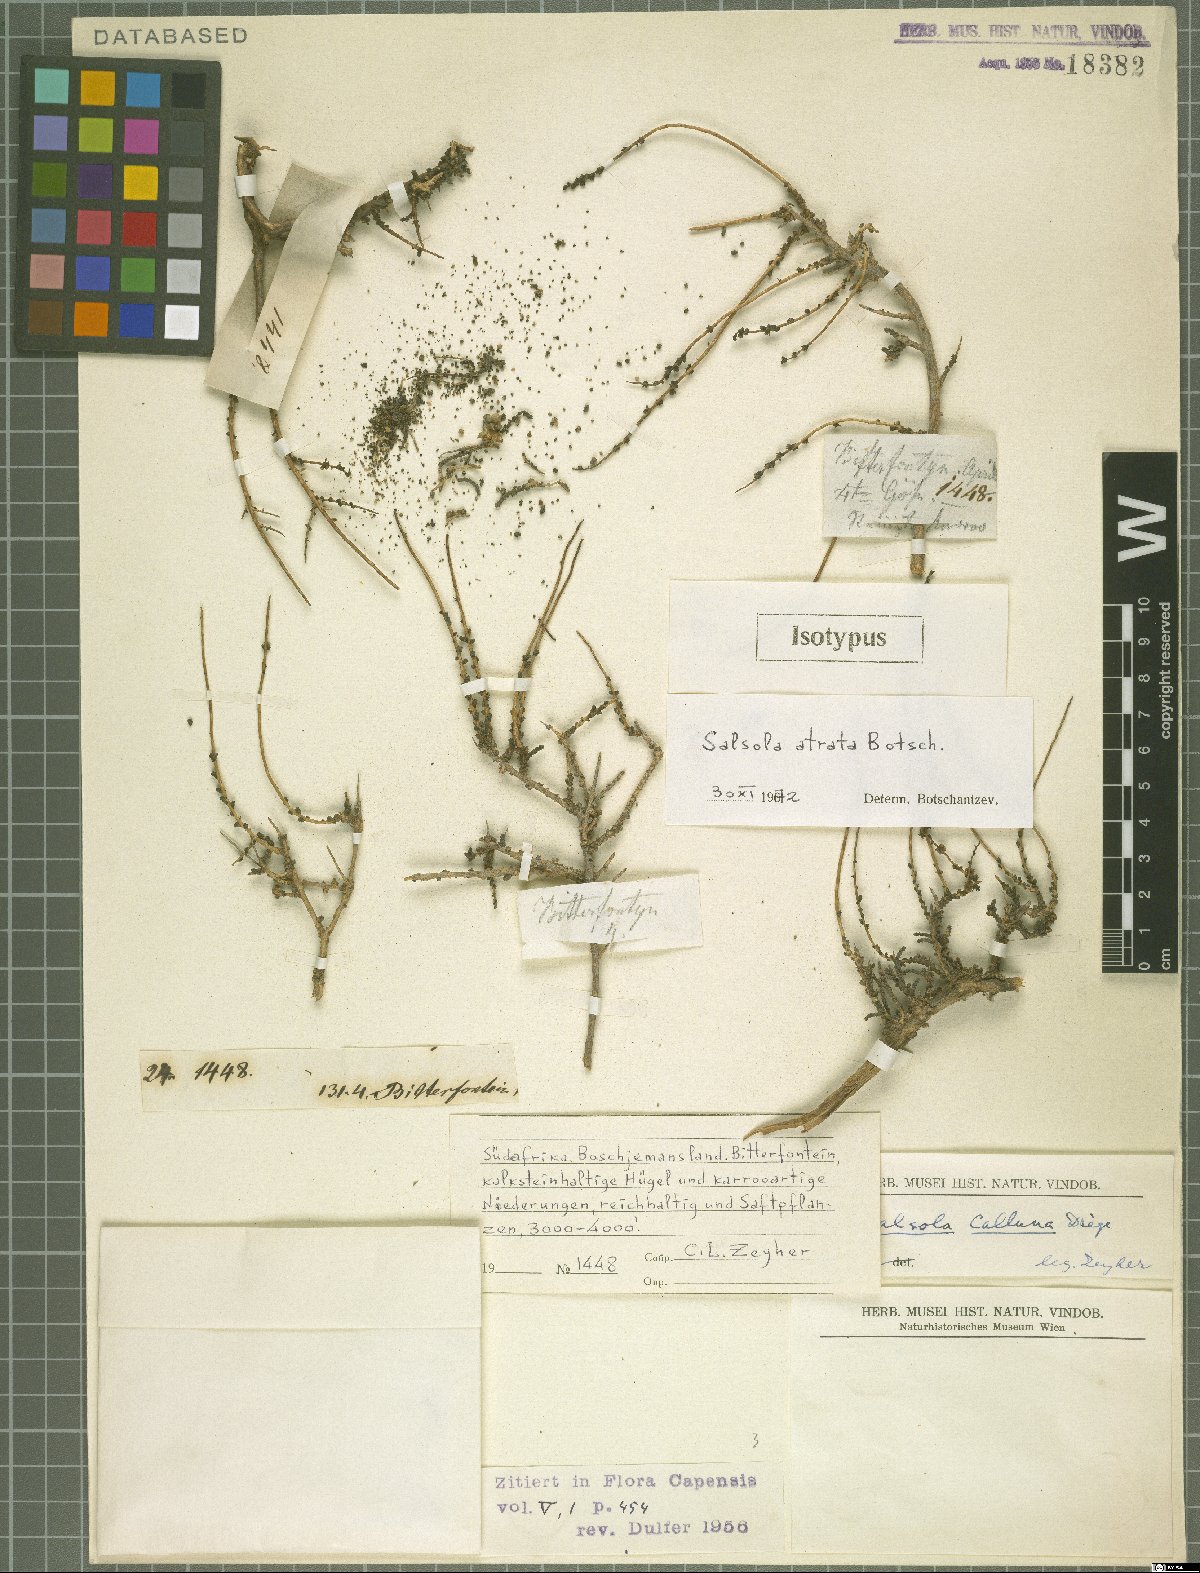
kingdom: Plantae
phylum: Tracheophyta
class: Magnoliopsida
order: Caryophyllales
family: Amaranthaceae
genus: Caroxylon
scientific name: Caroxylon atratum
